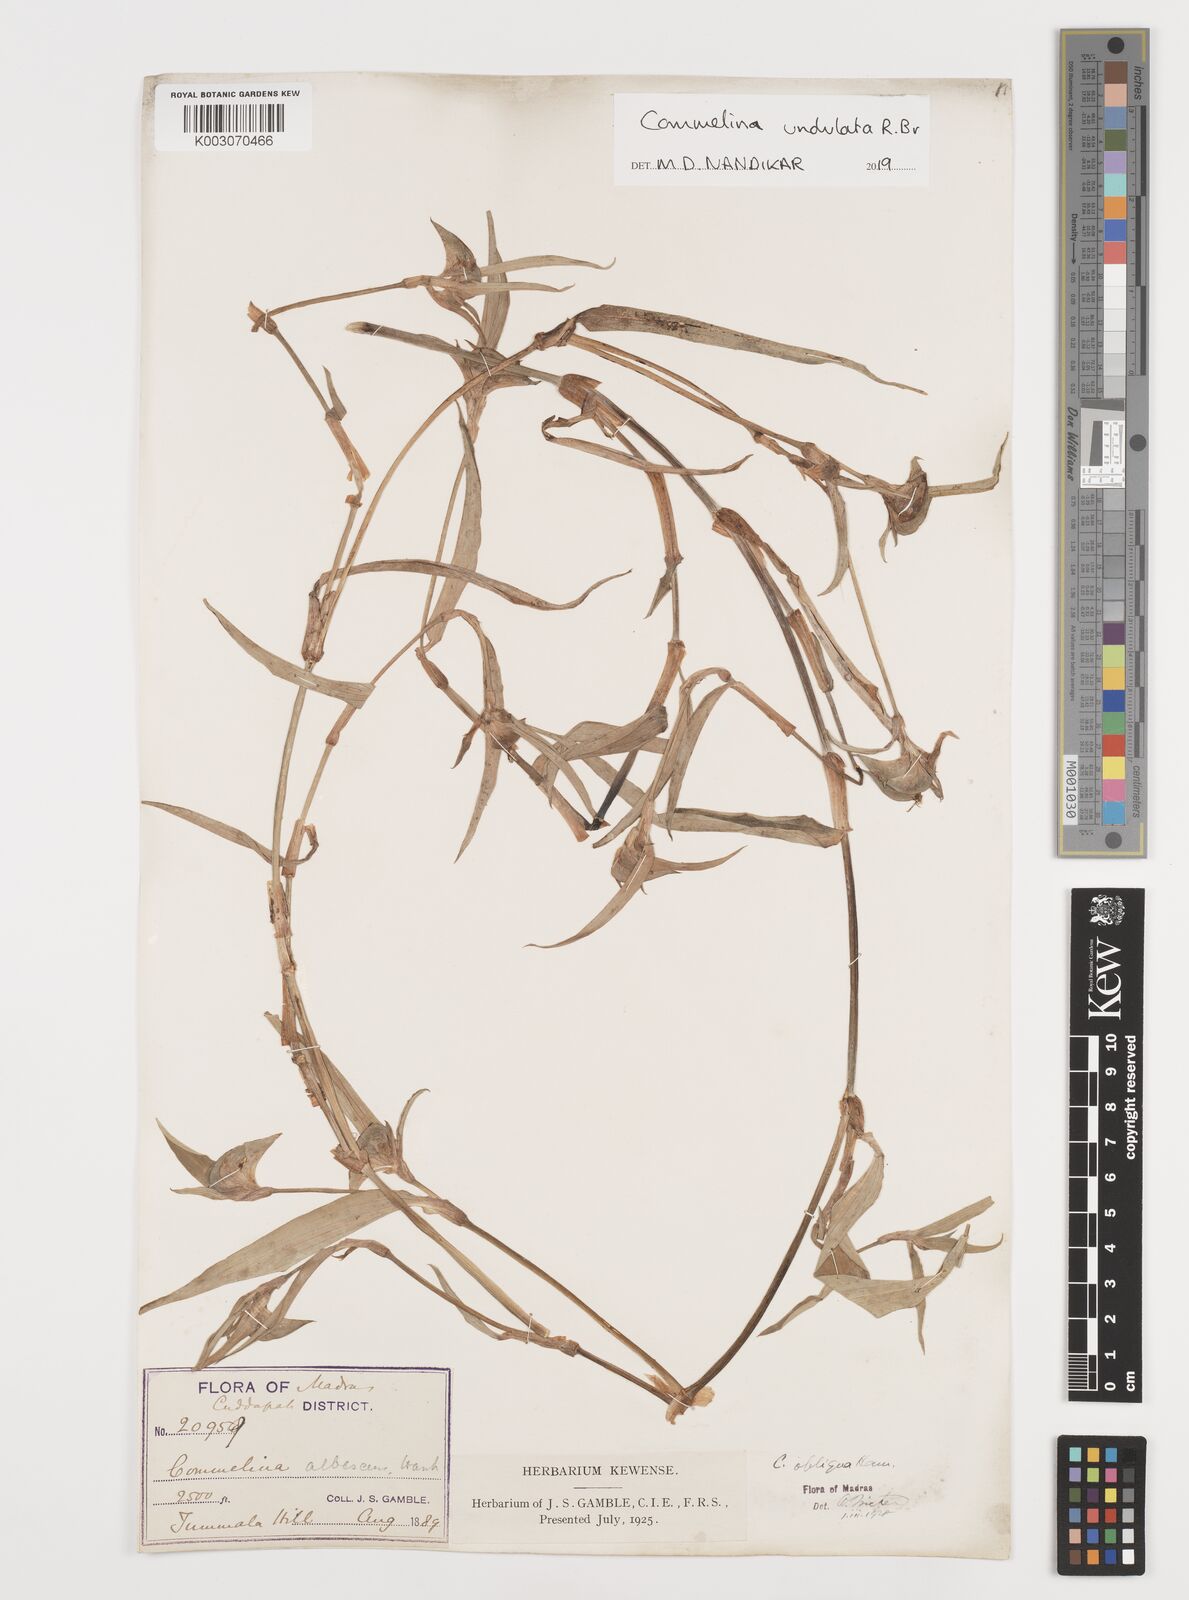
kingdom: Plantae
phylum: Tracheophyta
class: Liliopsida
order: Commelinales
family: Commelinaceae
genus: Commelina
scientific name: Commelina undulata
